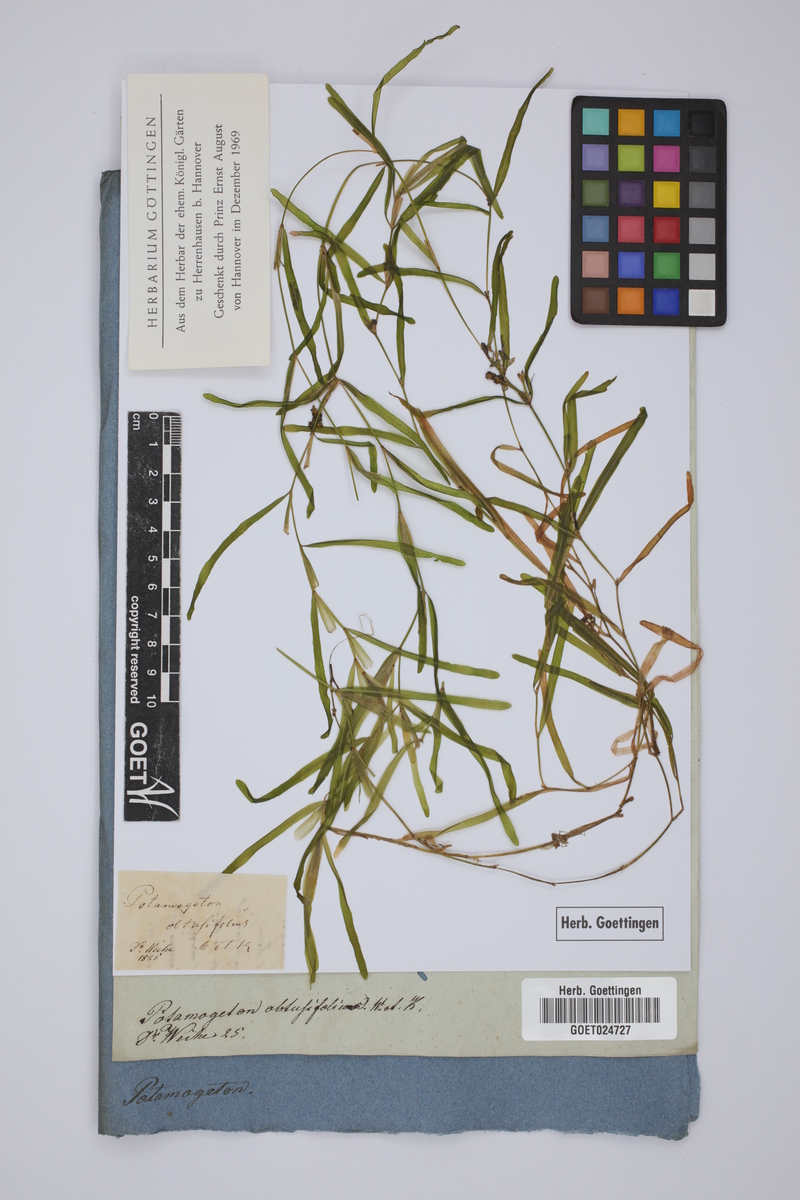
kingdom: Plantae
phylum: Tracheophyta
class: Liliopsida
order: Alismatales
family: Potamogetonaceae
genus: Potamogeton
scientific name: Potamogeton obtusifolius
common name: Blunt-leaved pondweed
